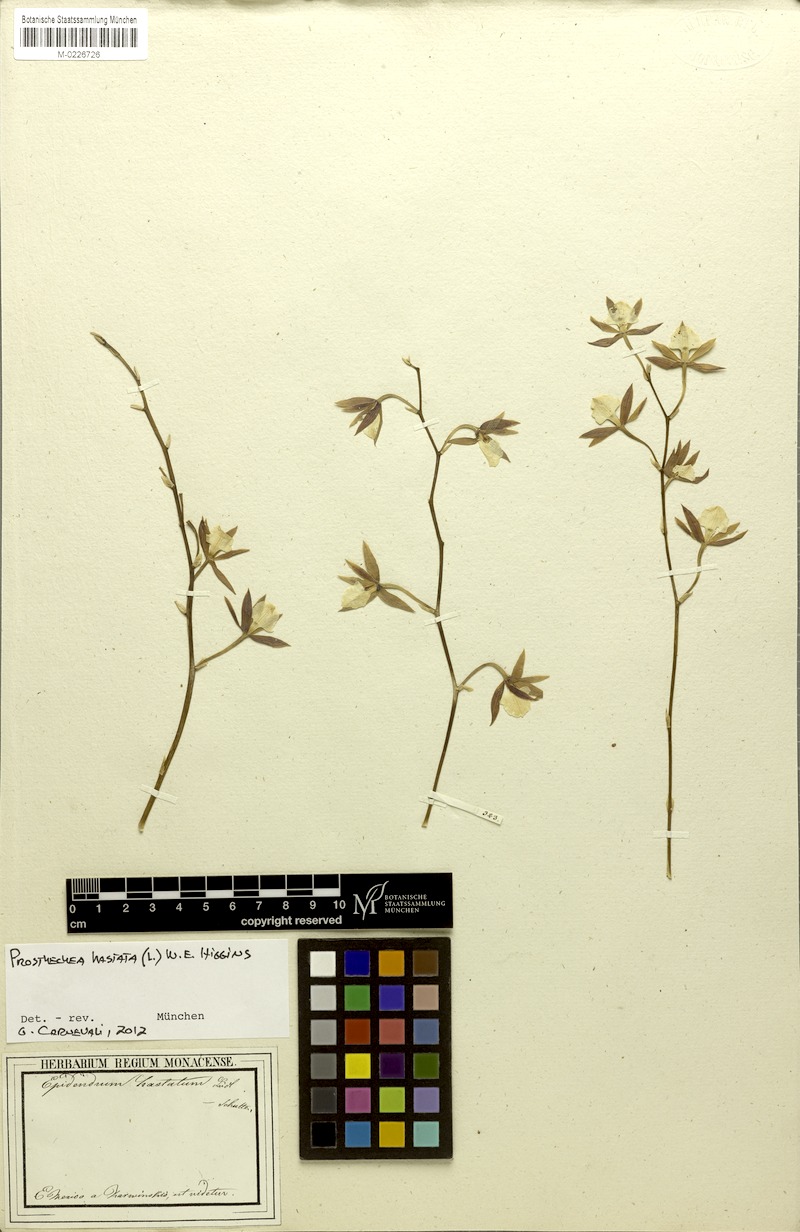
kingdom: Plantae
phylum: Tracheophyta
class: Liliopsida
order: Asparagales
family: Orchidaceae
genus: Prosthechea
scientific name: Prosthechea hastata
